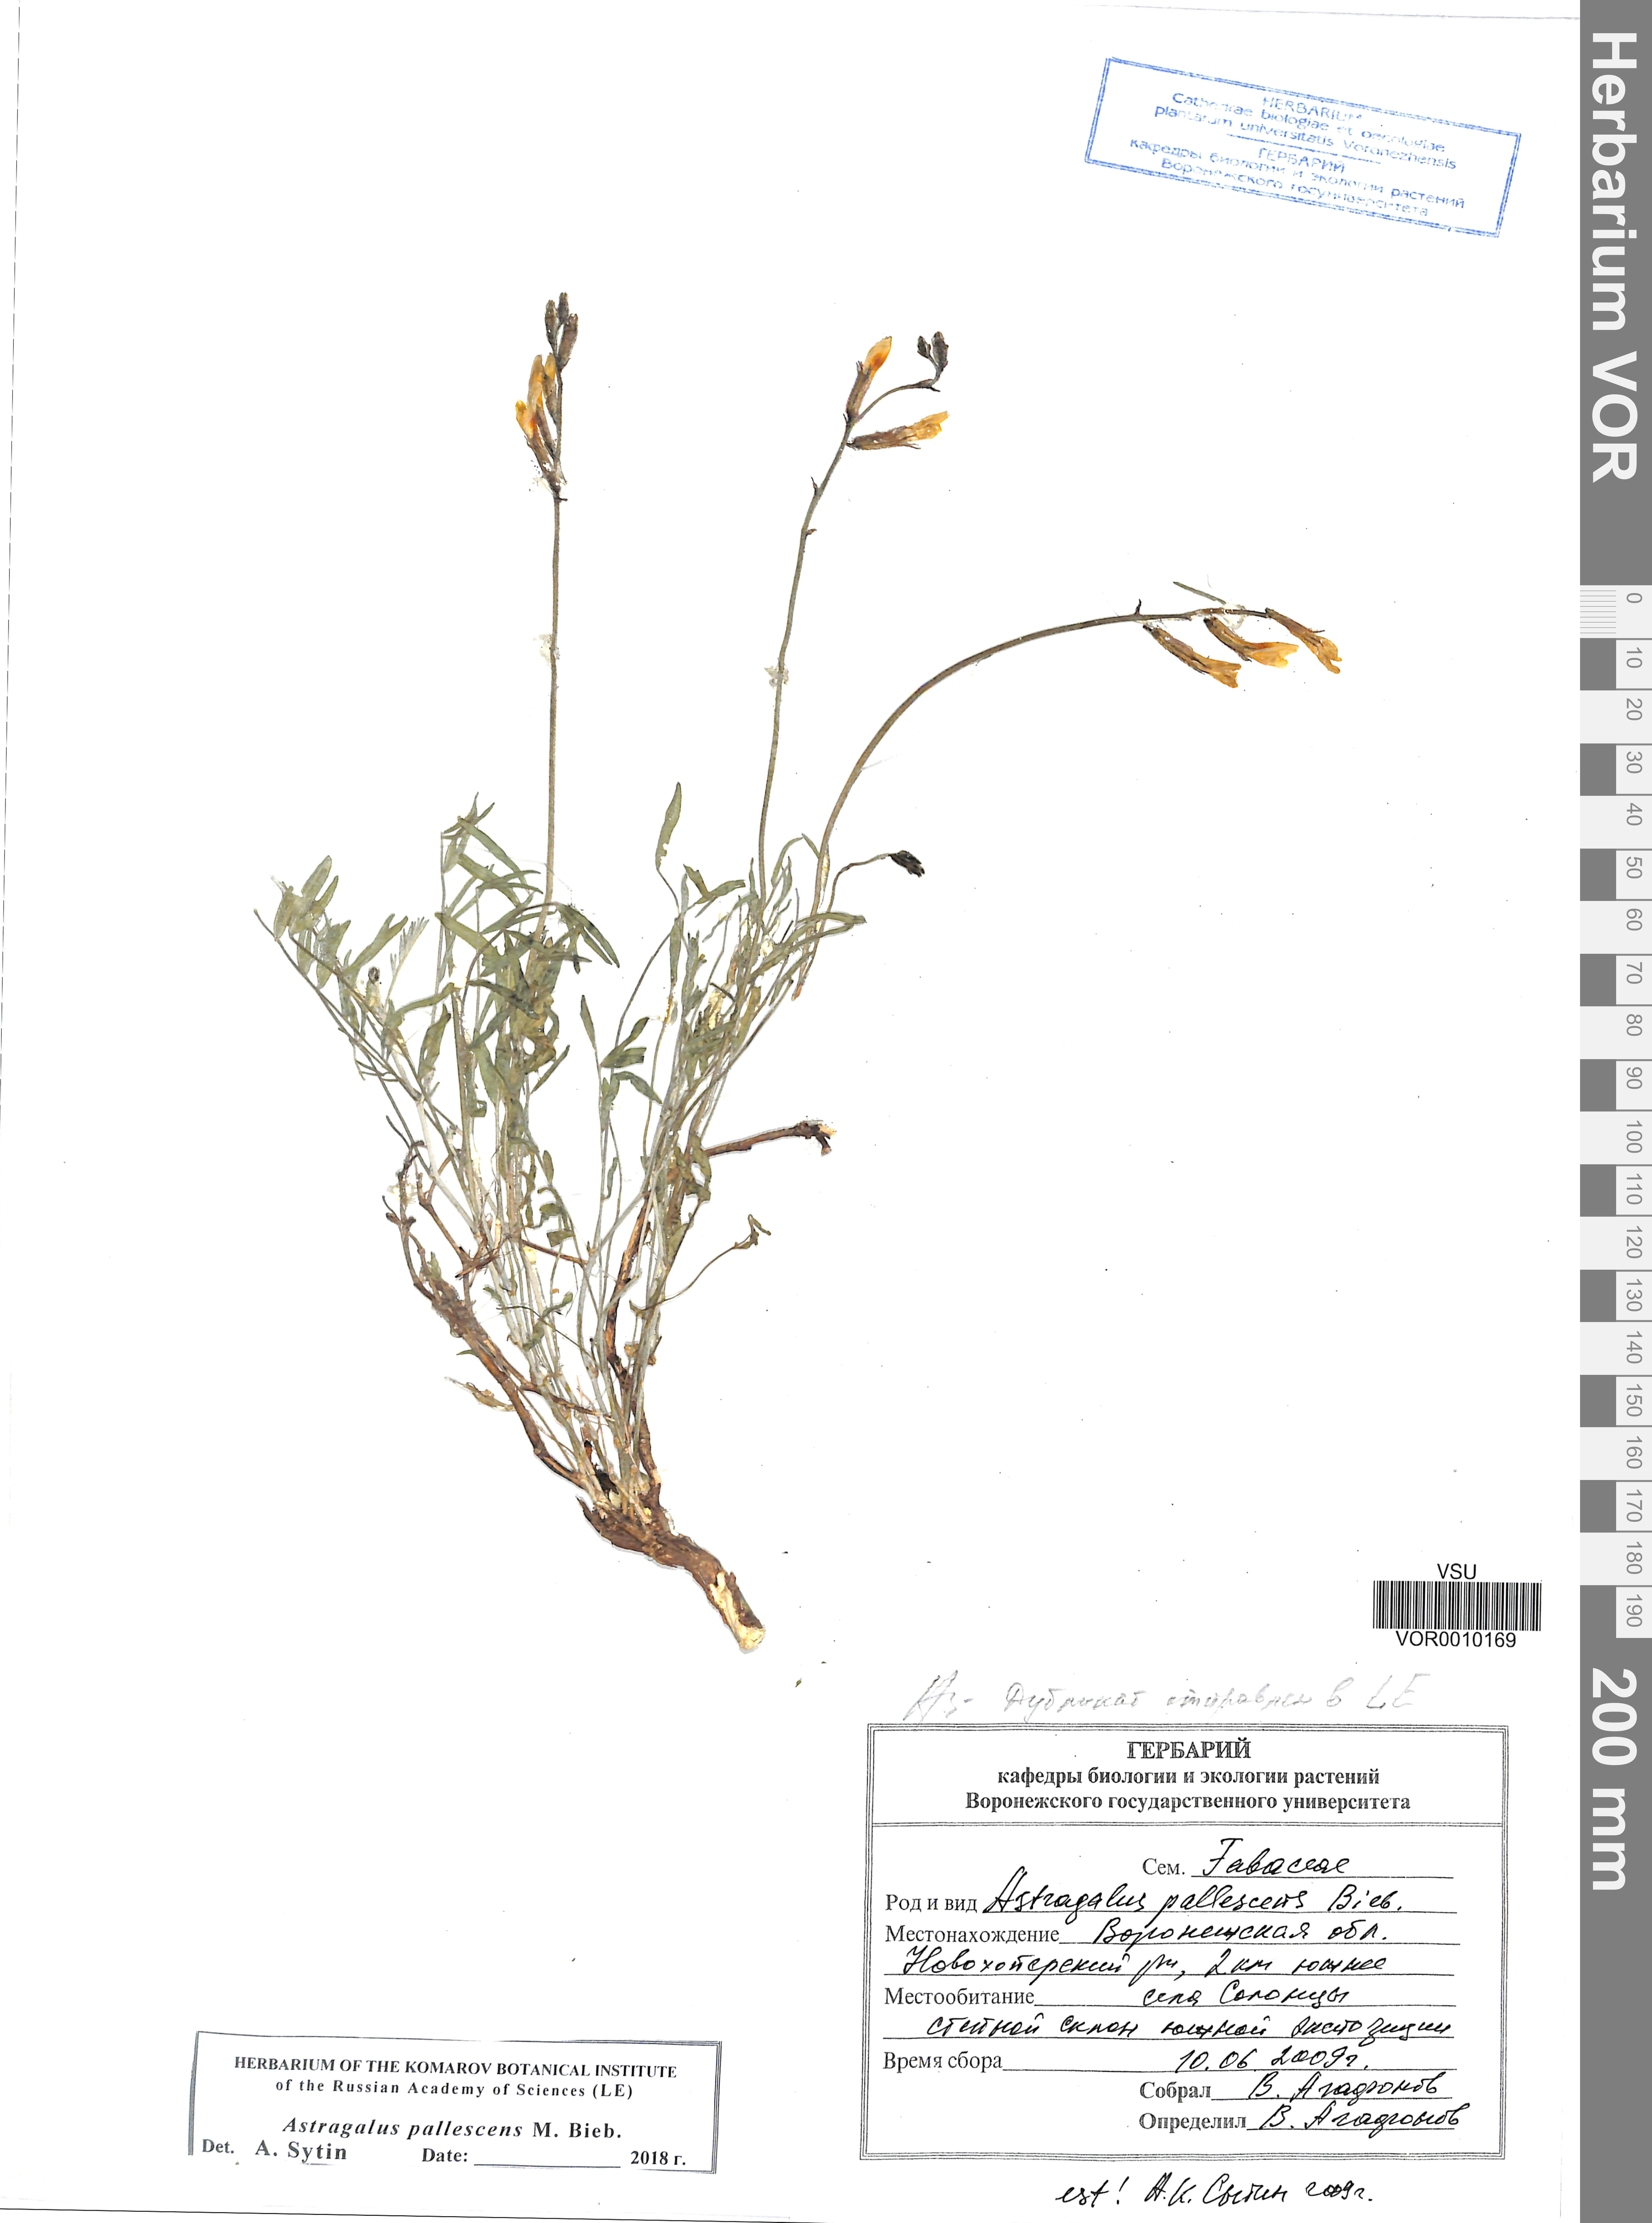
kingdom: Plantae
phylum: Tracheophyta
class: Magnoliopsida
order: Fabales
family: Fabaceae
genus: Astragalus
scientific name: Astragalus pallescens
